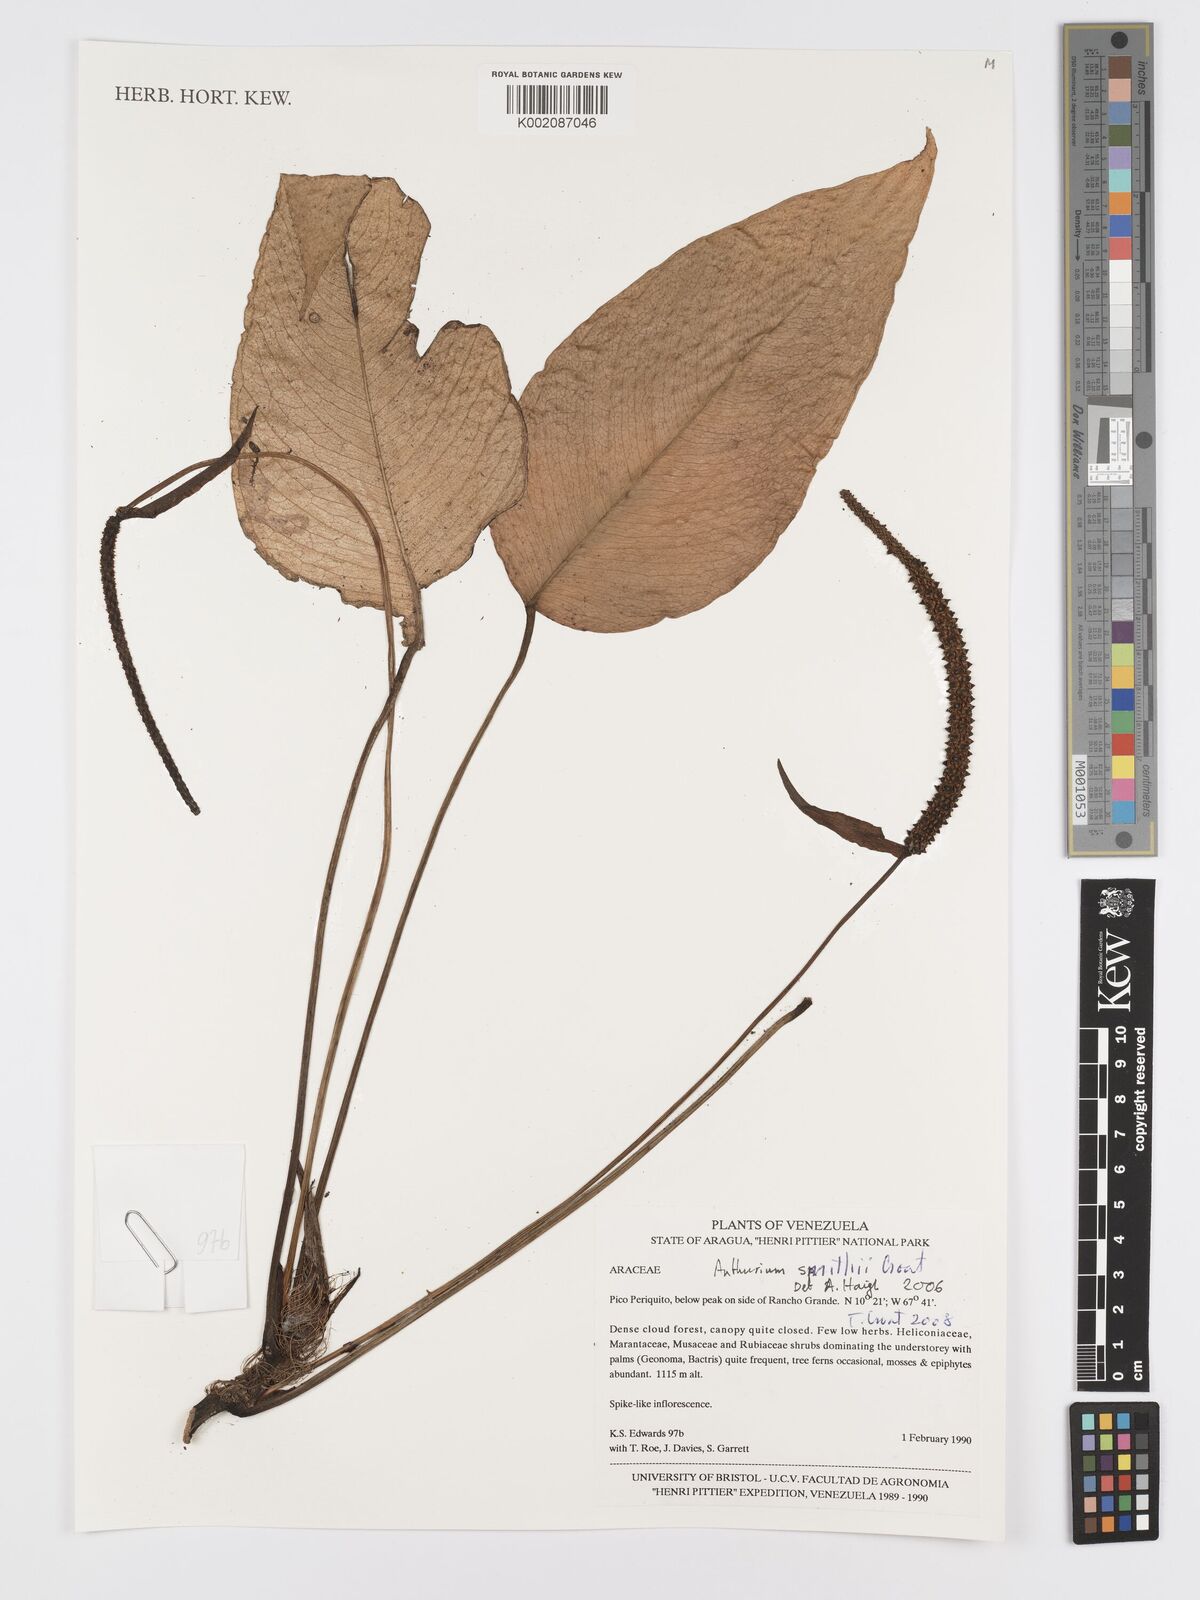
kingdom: Plantae
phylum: Tracheophyta
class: Liliopsida
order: Alismatales
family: Araceae
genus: Anthurium
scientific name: Anthurium smithii
